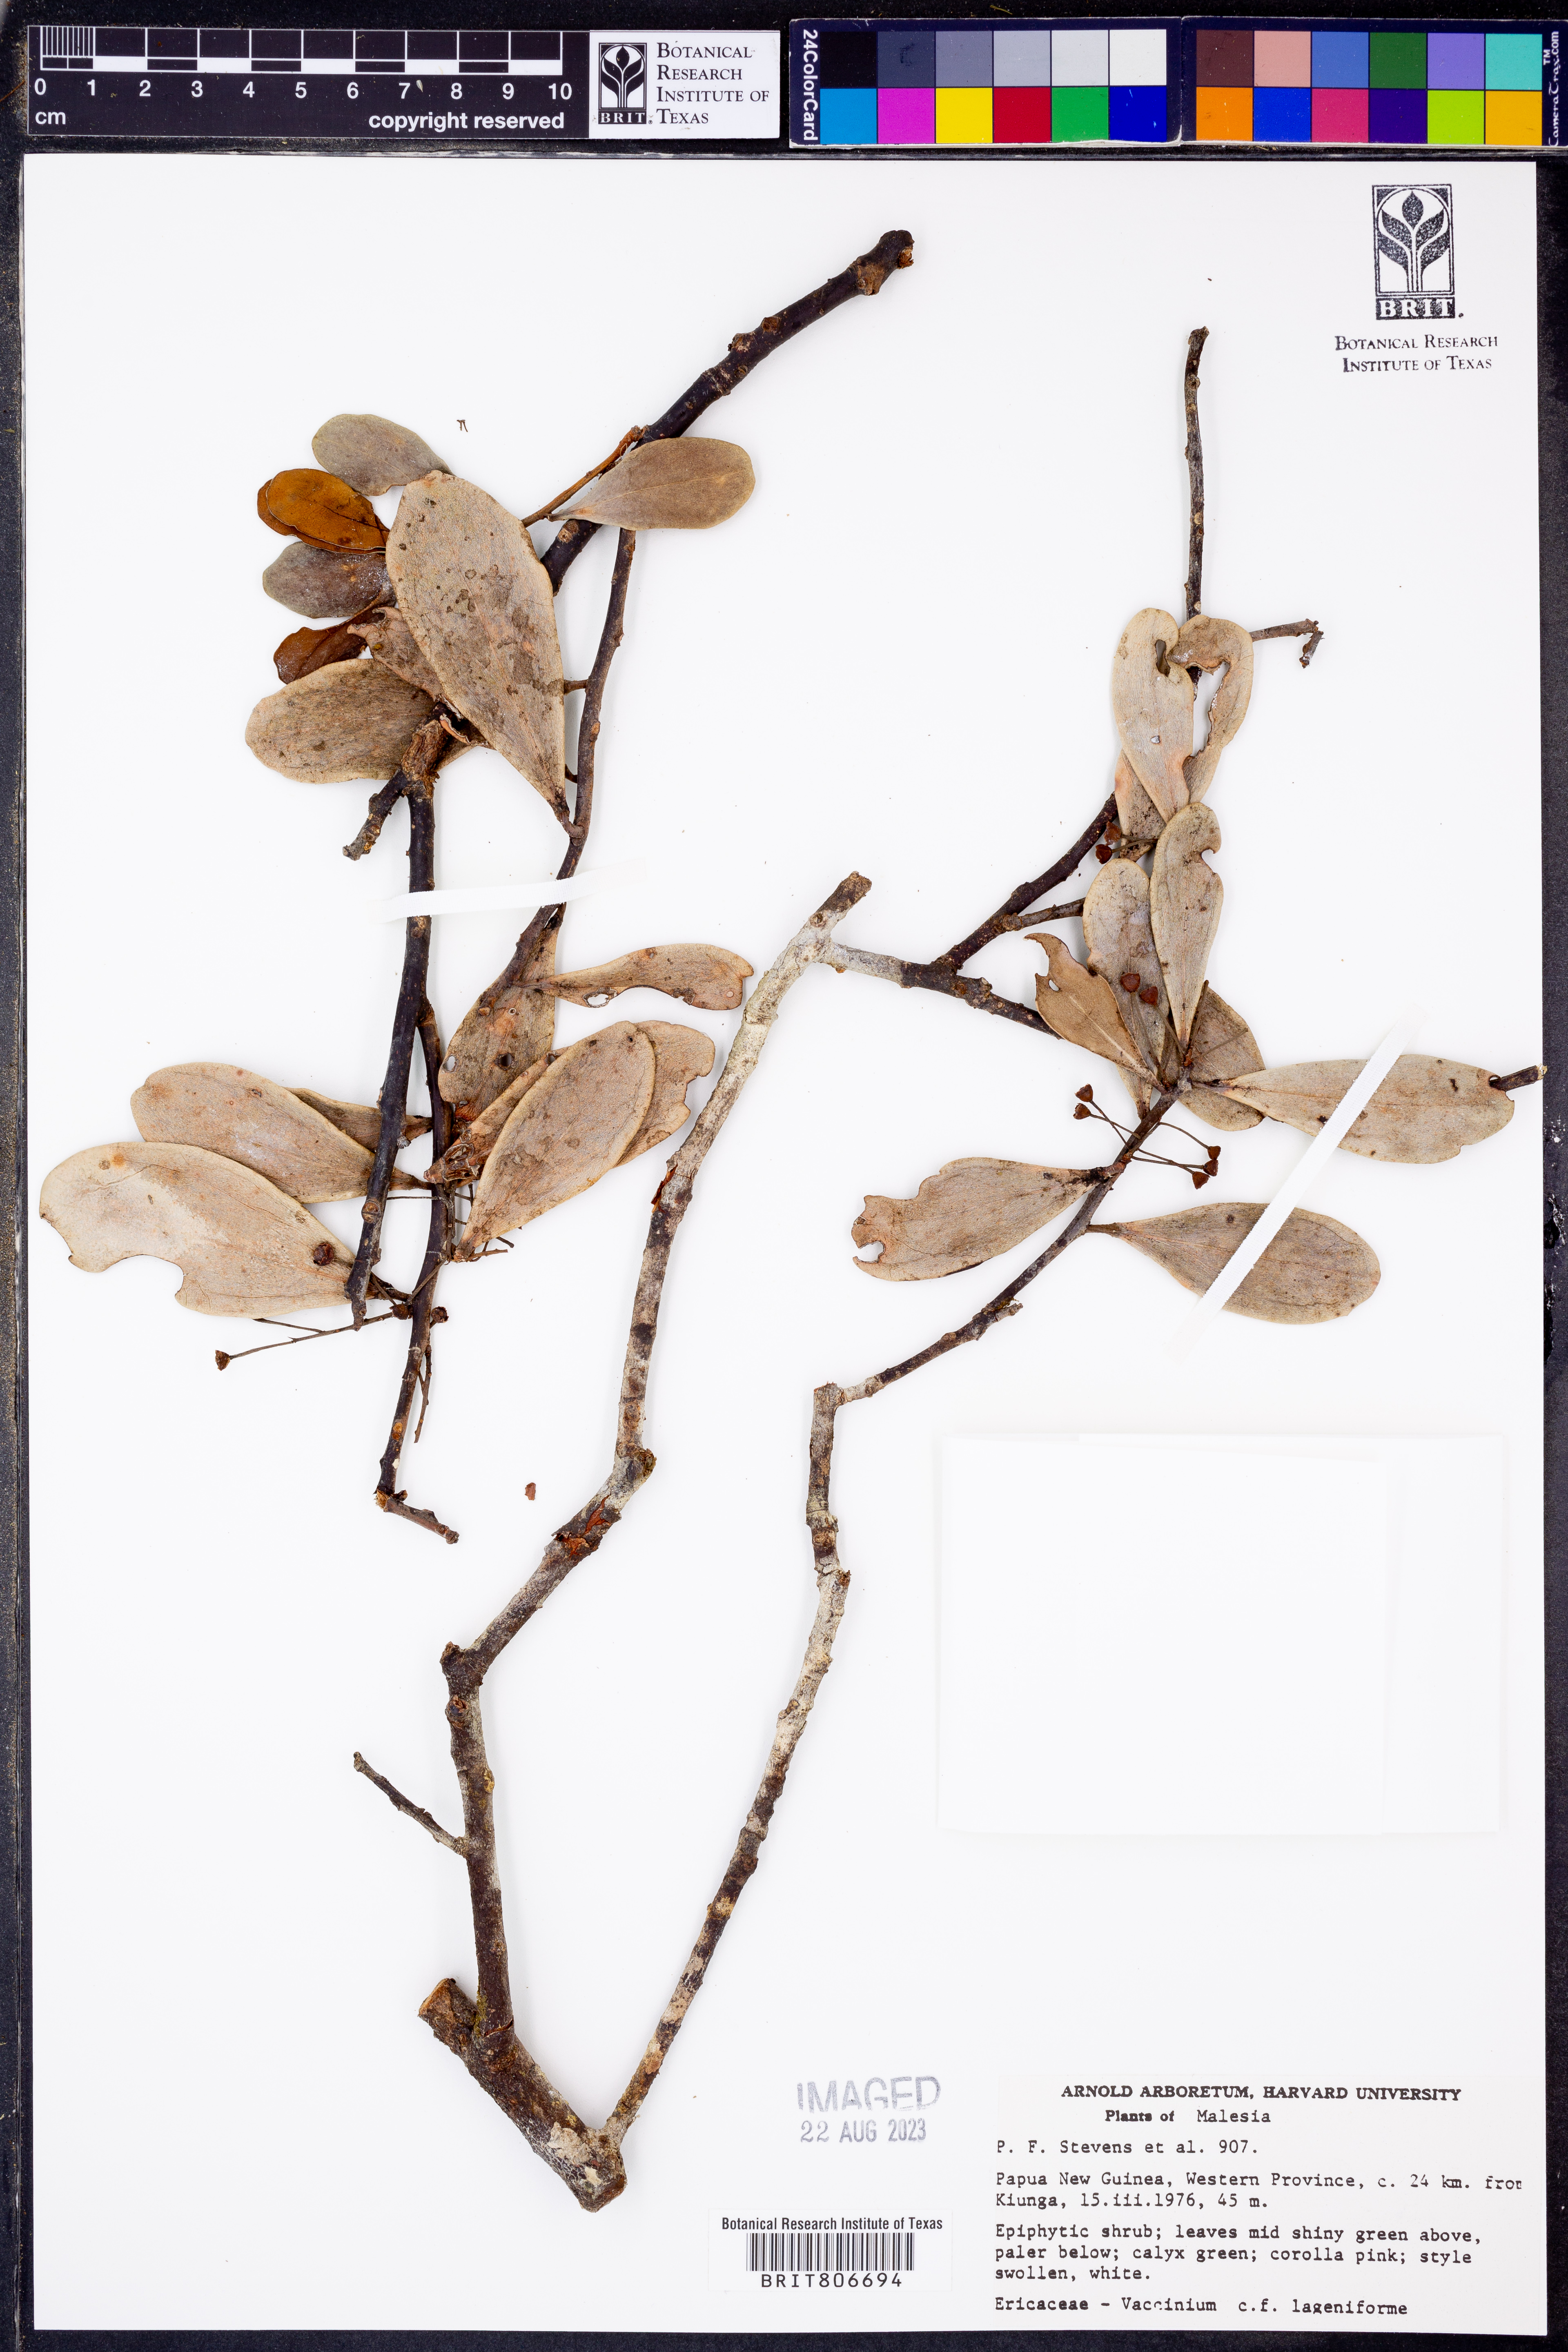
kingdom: Plantae
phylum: Tracheophyta
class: Magnoliopsida
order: Ericales
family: Ericaceae
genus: Vaccinium
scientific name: Vaccinium
